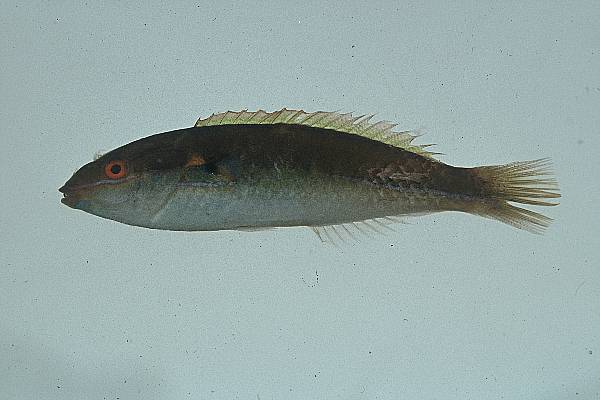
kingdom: Animalia
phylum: Chordata
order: Perciformes
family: Labridae
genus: Stethojulis
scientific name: Stethojulis interrupta
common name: Cutribbon wrasse
